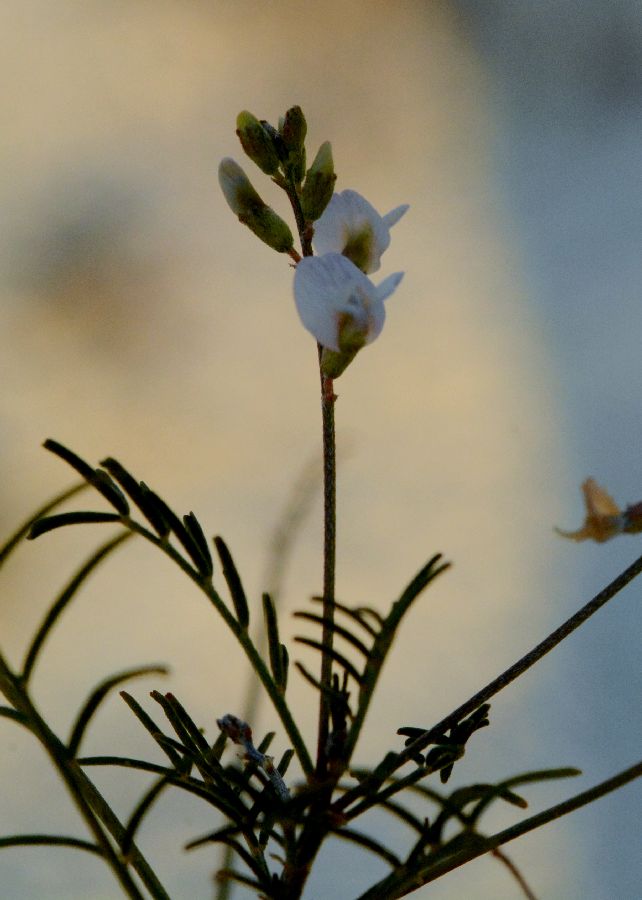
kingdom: Plantae
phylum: Tracheophyta
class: Magnoliopsida
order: Fabales
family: Fabaceae
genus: Astragalus
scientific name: Astragalus austriacus
